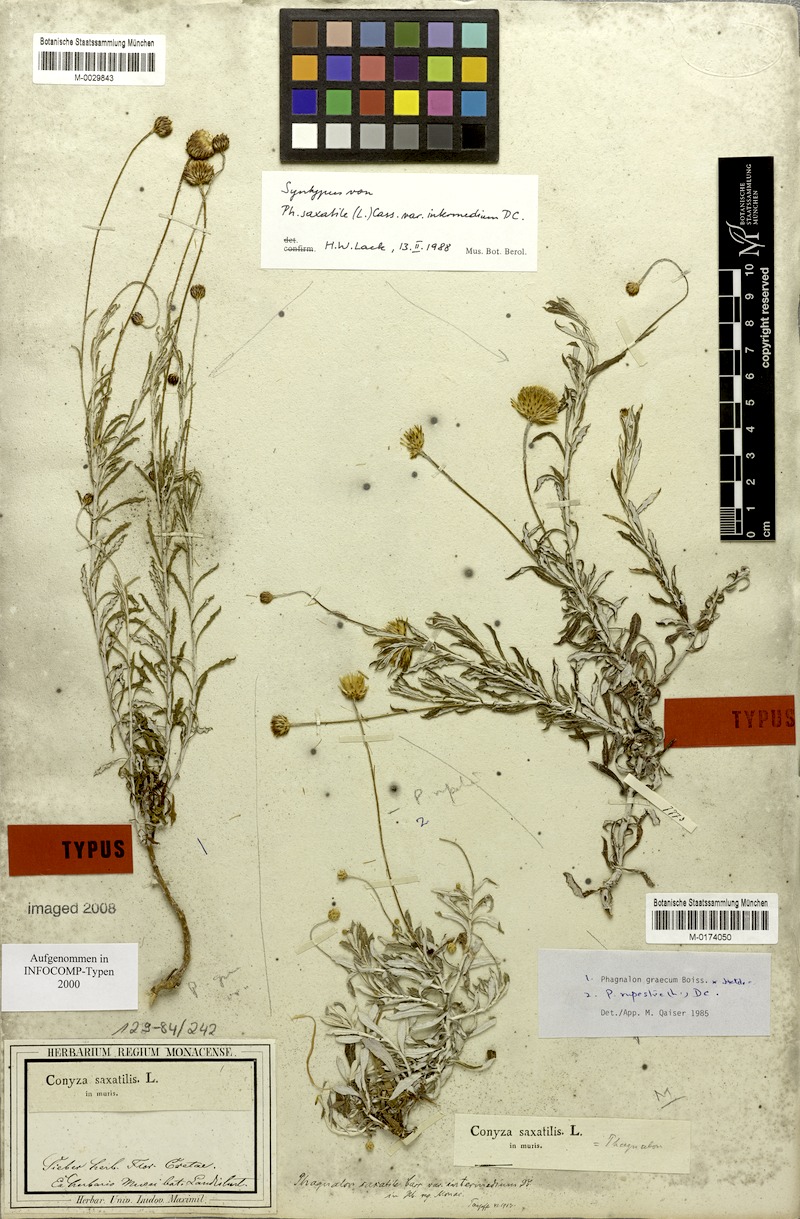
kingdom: Plantae
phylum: Tracheophyta
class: Magnoliopsida
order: Asterales
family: Asteraceae
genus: Phagnalon
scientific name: Phagnalon rupestre
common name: Rock phagnalon
